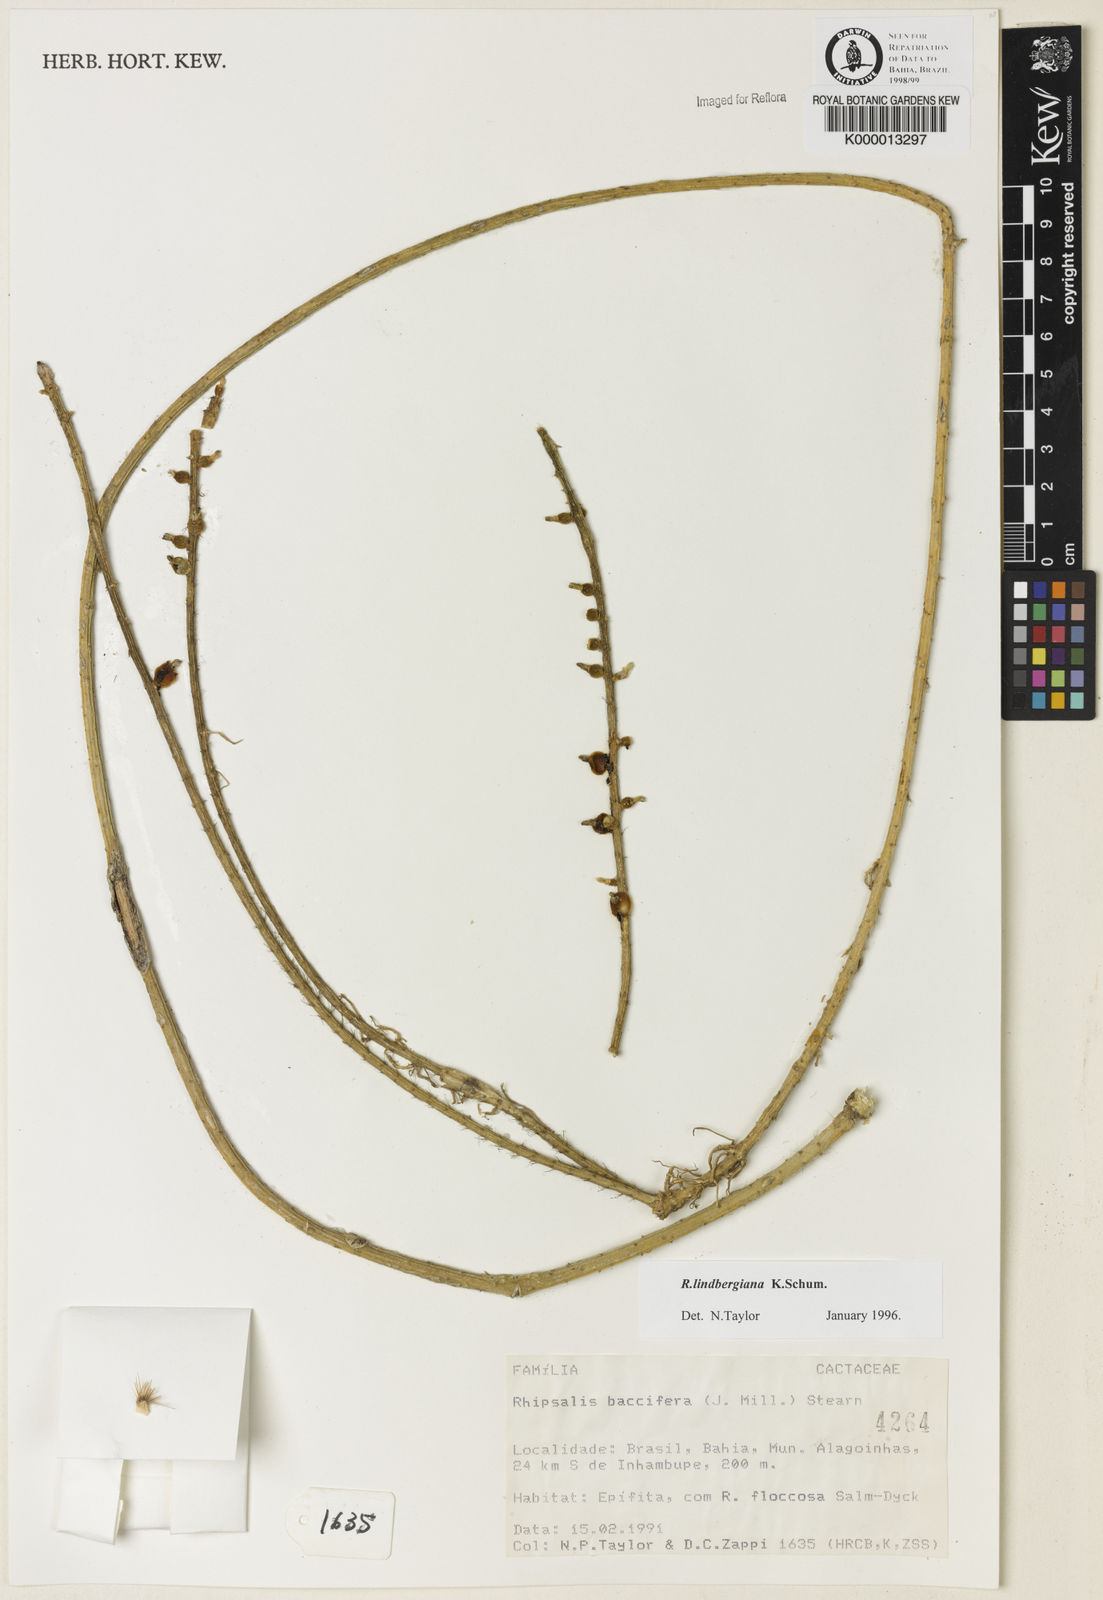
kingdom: Plantae
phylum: Tracheophyta
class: Magnoliopsida
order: Caryophyllales
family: Cactaceae
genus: Rhipsalis
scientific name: Rhipsalis
